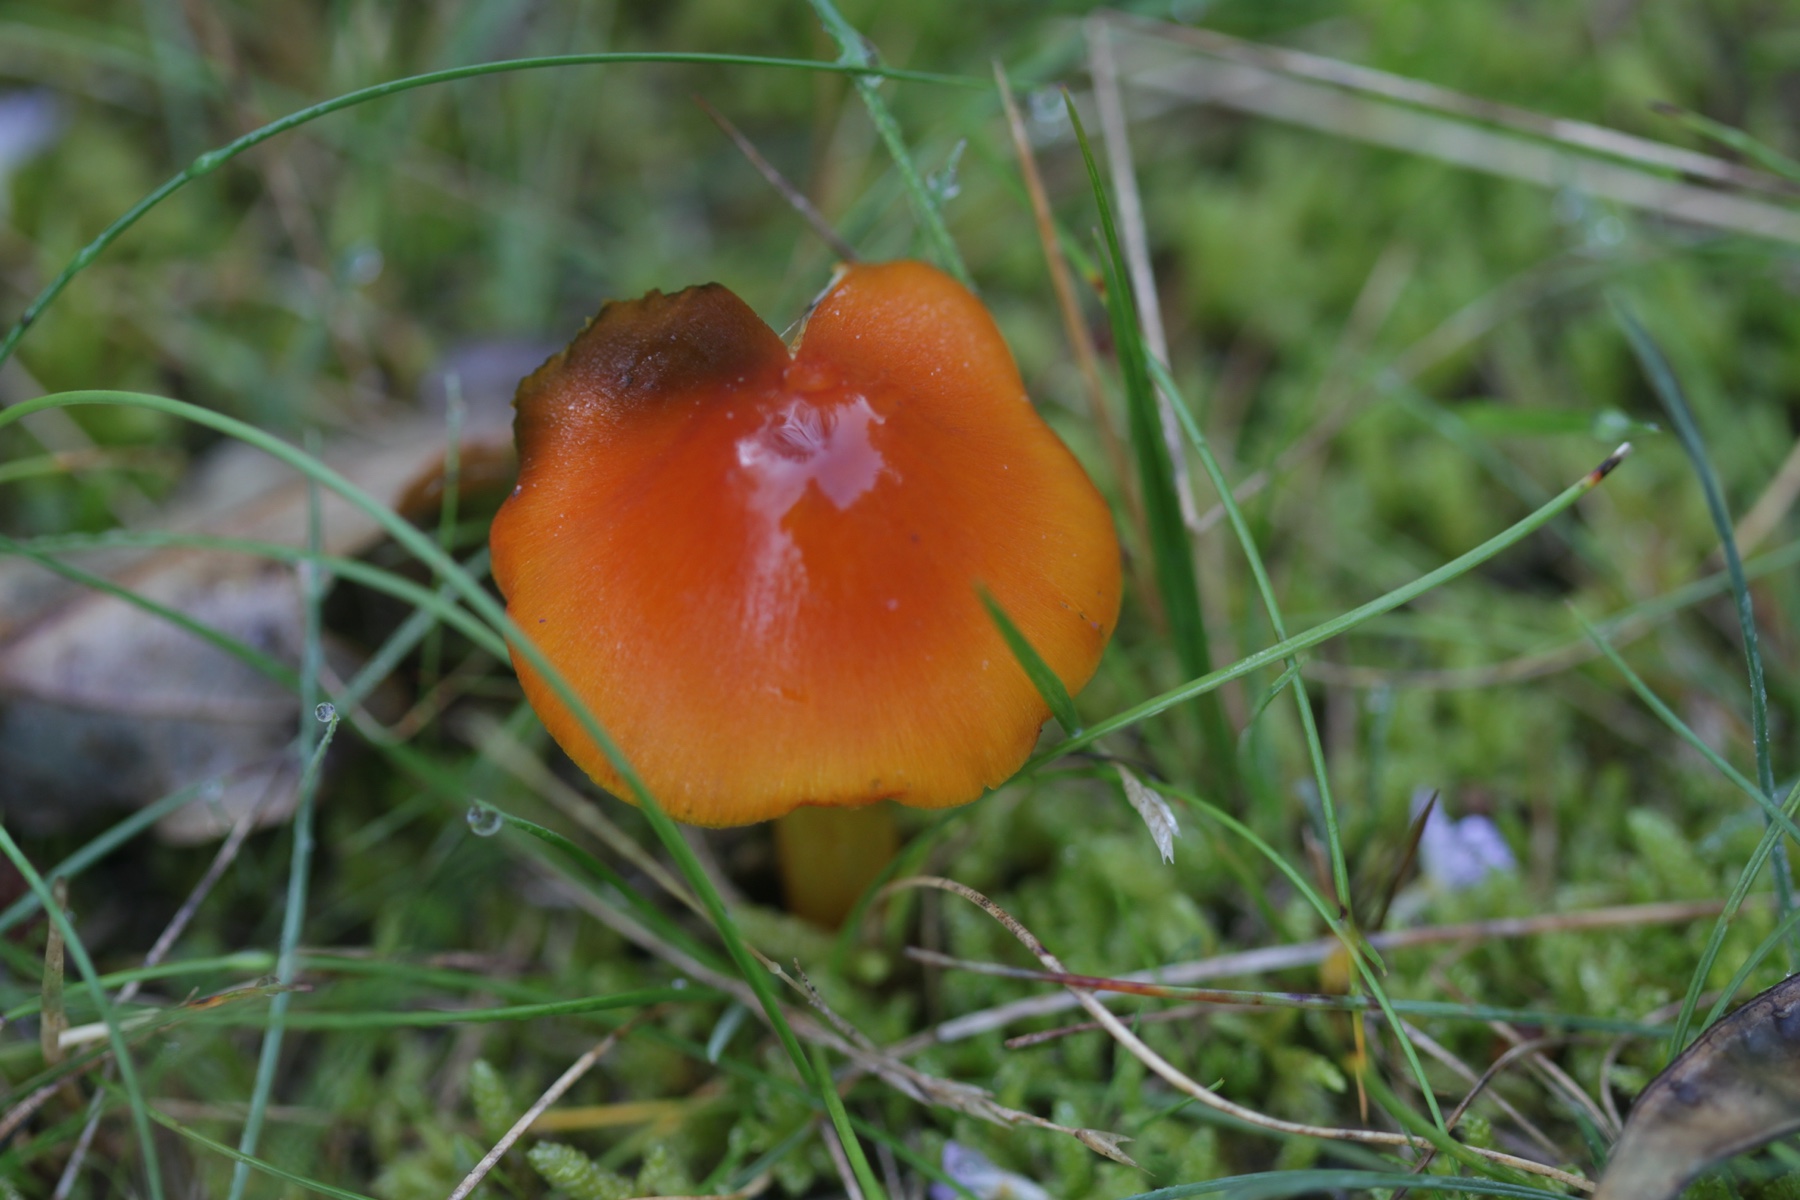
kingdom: Fungi
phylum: Basidiomycota
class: Agaricomycetes
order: Agaricales
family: Hygrophoraceae
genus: Hygrocybe
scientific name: Hygrocybe conica
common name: kegle-vokshat
